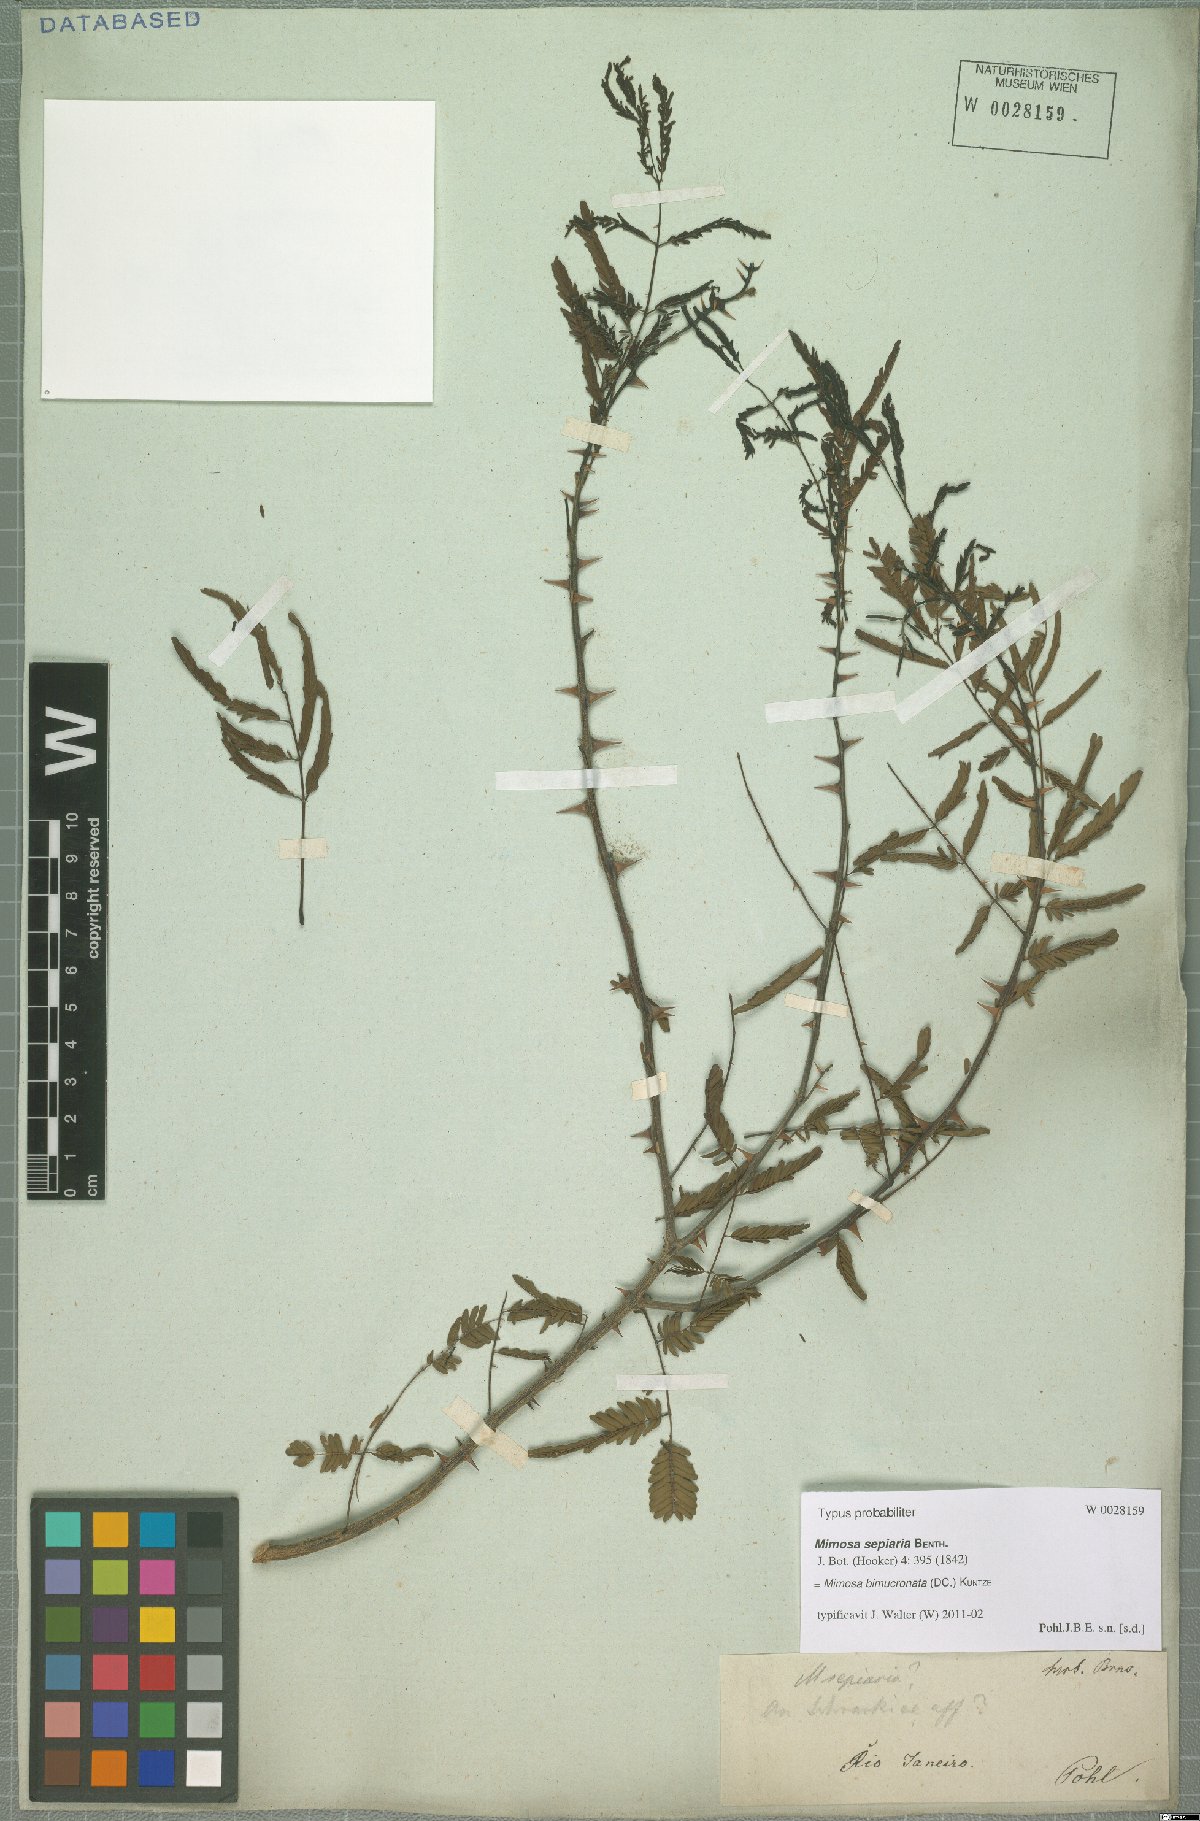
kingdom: Plantae
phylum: Tracheophyta
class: Magnoliopsida
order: Fabales
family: Fabaceae
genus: Mimosa
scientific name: Mimosa bimucronata
